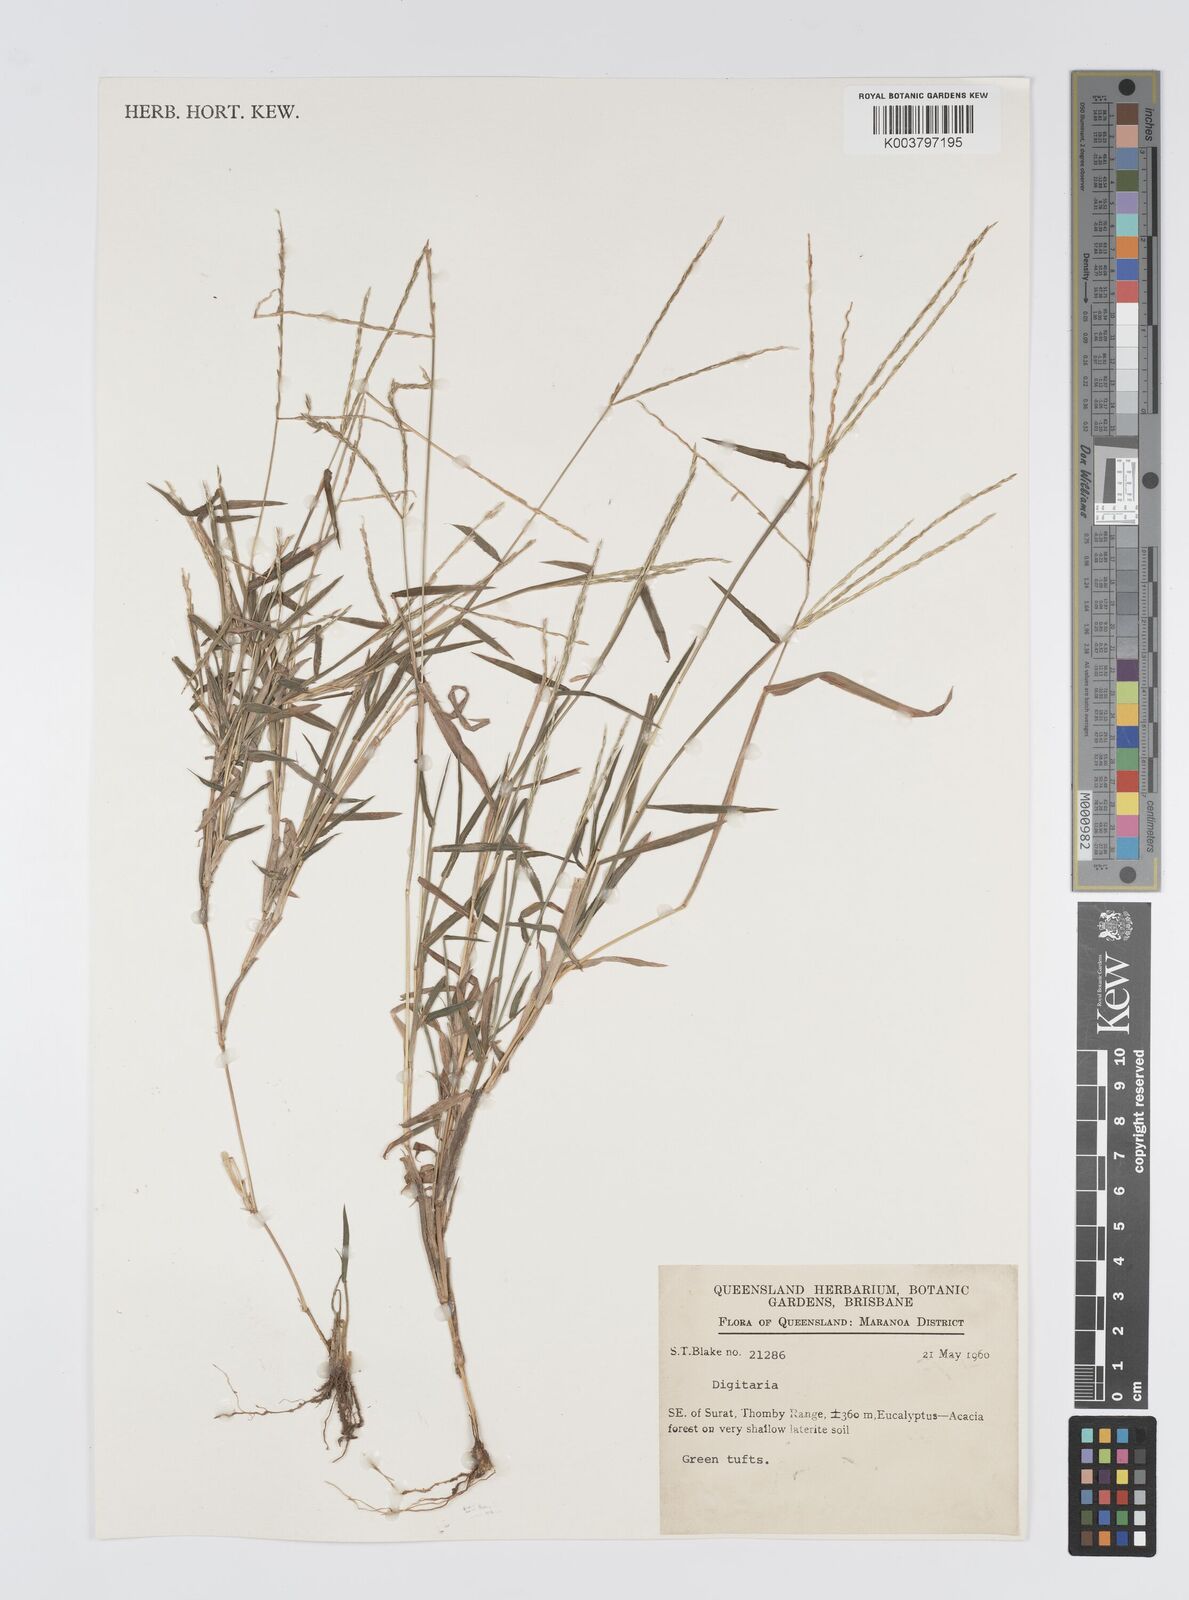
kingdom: Plantae
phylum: Tracheophyta
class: Liliopsida
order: Poales
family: Poaceae
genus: Digitaria
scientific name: Digitaria spec
